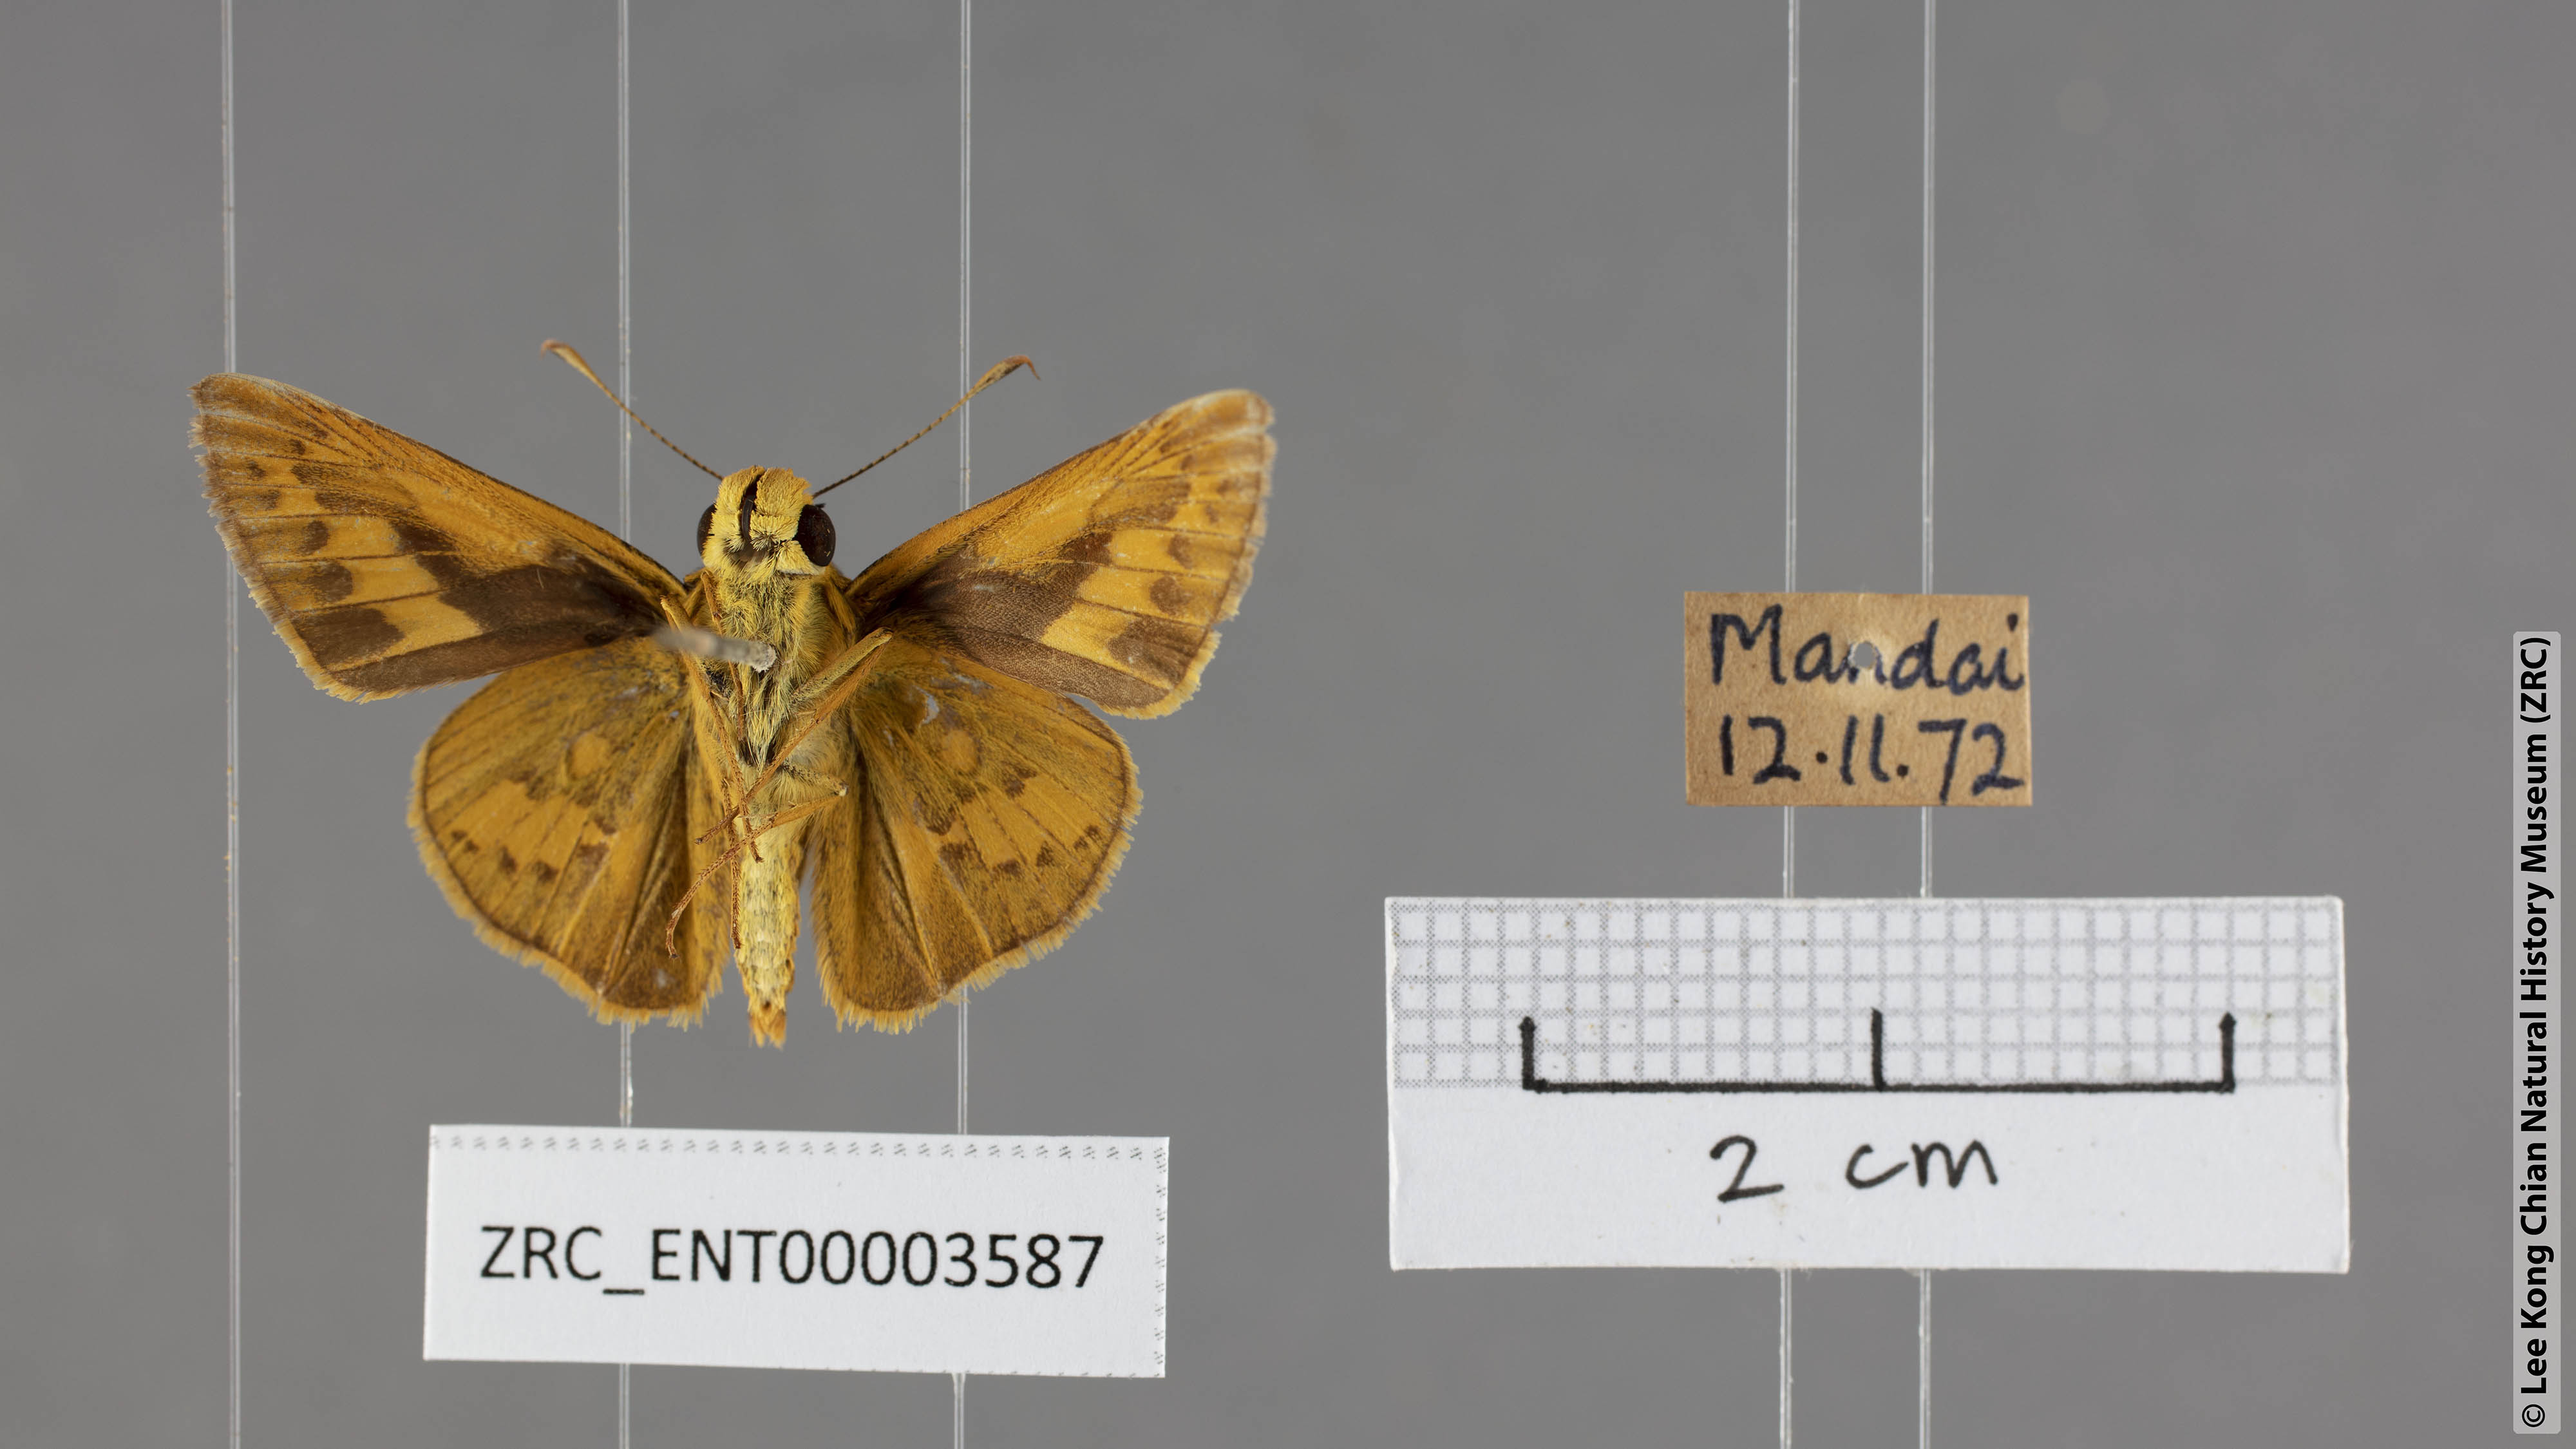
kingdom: Animalia
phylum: Arthropoda
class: Insecta
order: Lepidoptera
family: Hesperiidae
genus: Telicota
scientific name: Telicota colon
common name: Pale palm dart
